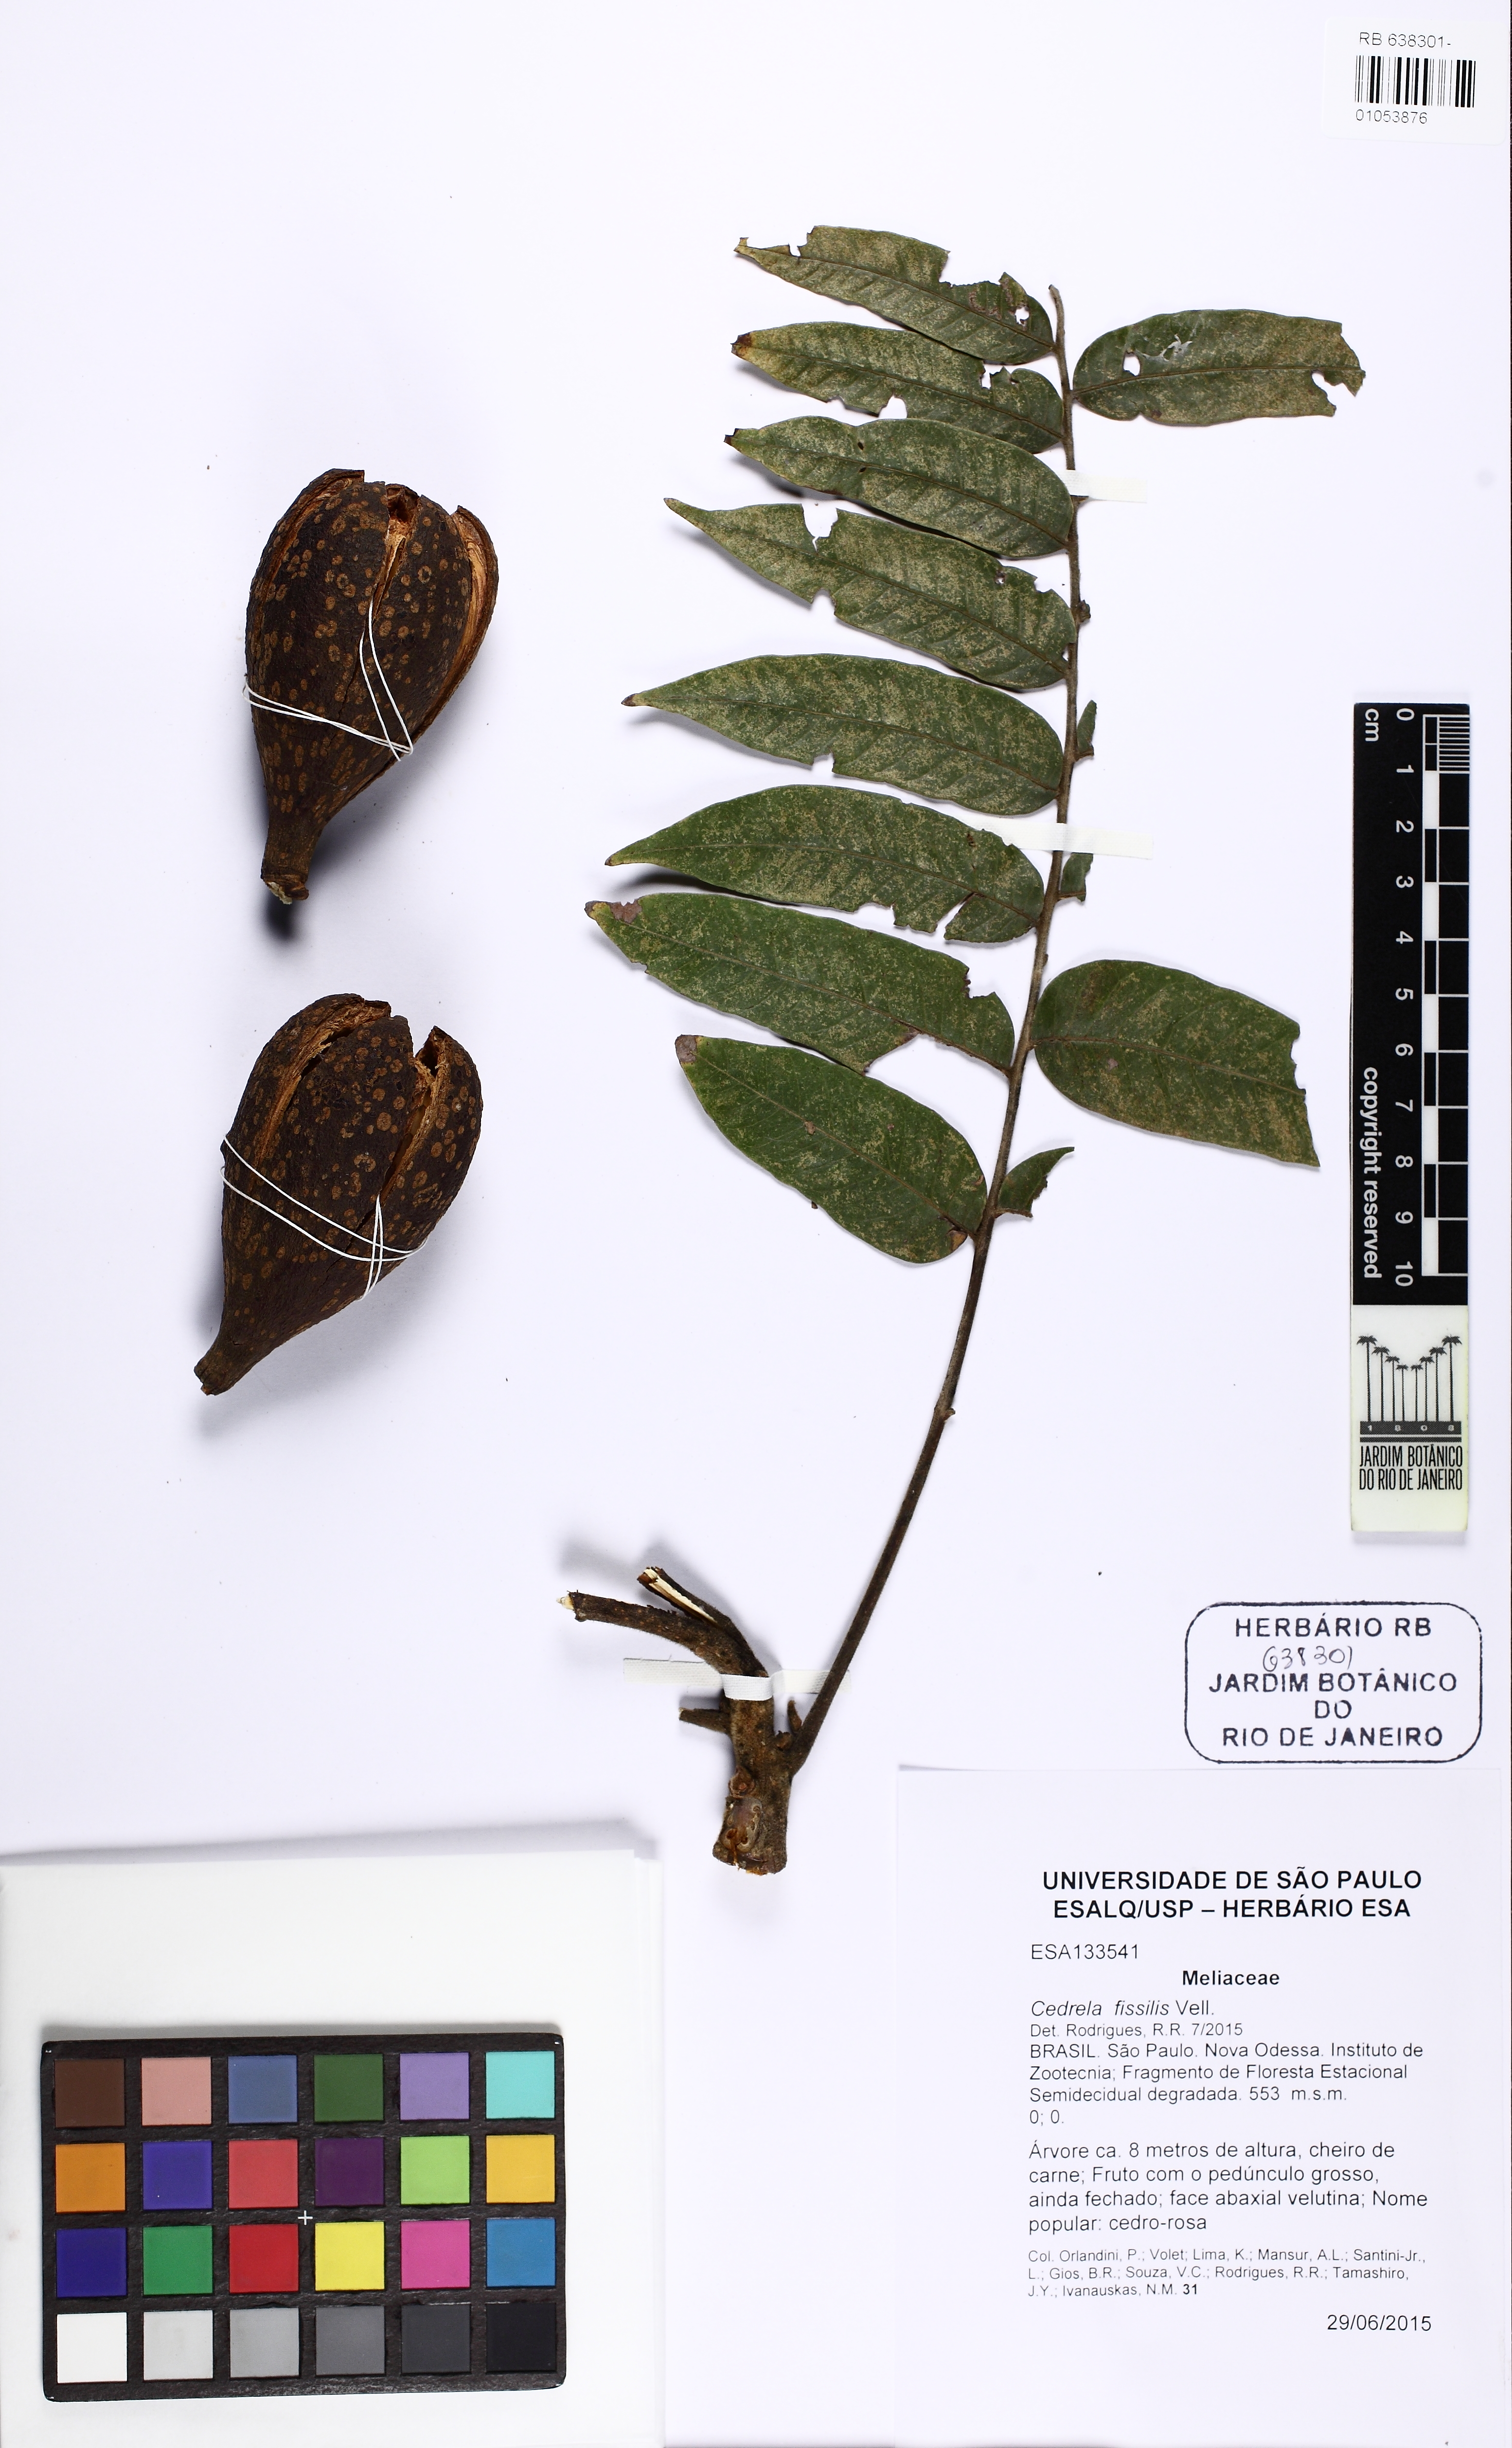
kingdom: Plantae
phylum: Tracheophyta
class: Magnoliopsida
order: Sapindales
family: Meliaceae
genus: Cedrela
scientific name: Cedrela fissilis
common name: Argentine cedar
